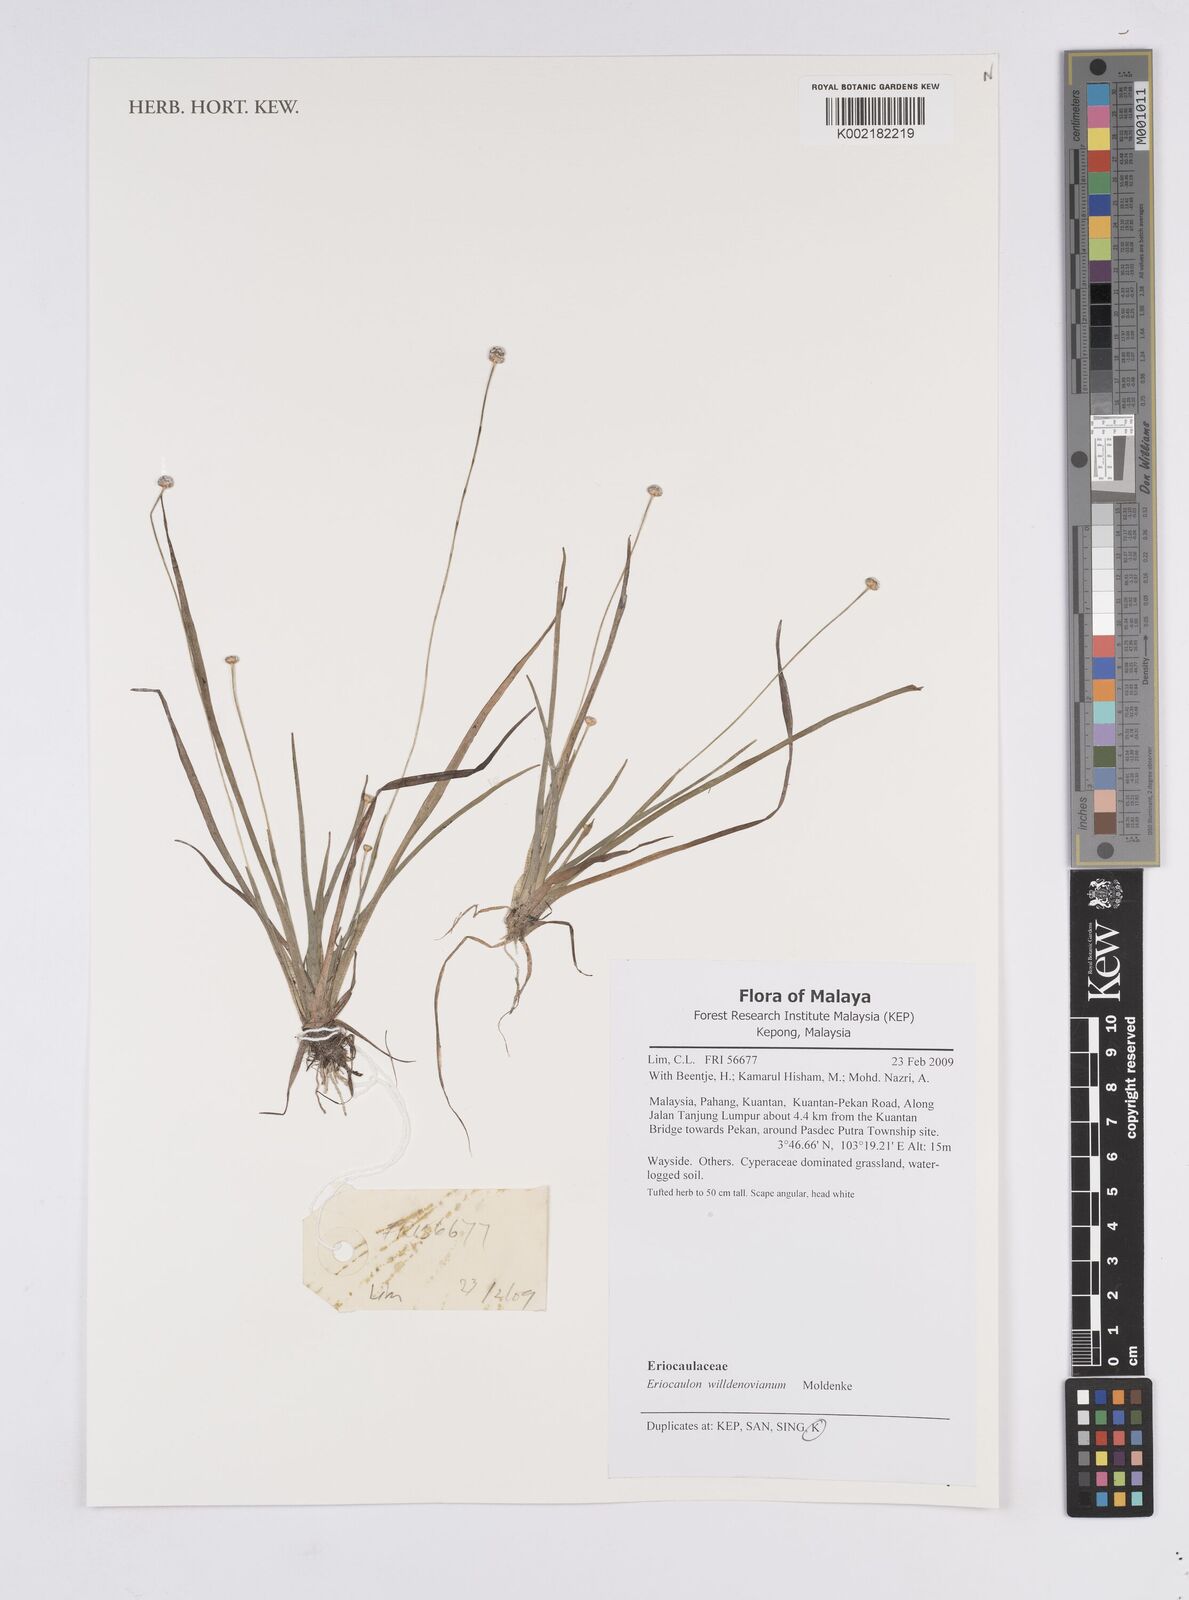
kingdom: Plantae
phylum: Tracheophyta
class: Liliopsida
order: Poales
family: Eriocaulaceae
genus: Eriocaulon
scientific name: Eriocaulon willdenovianum
